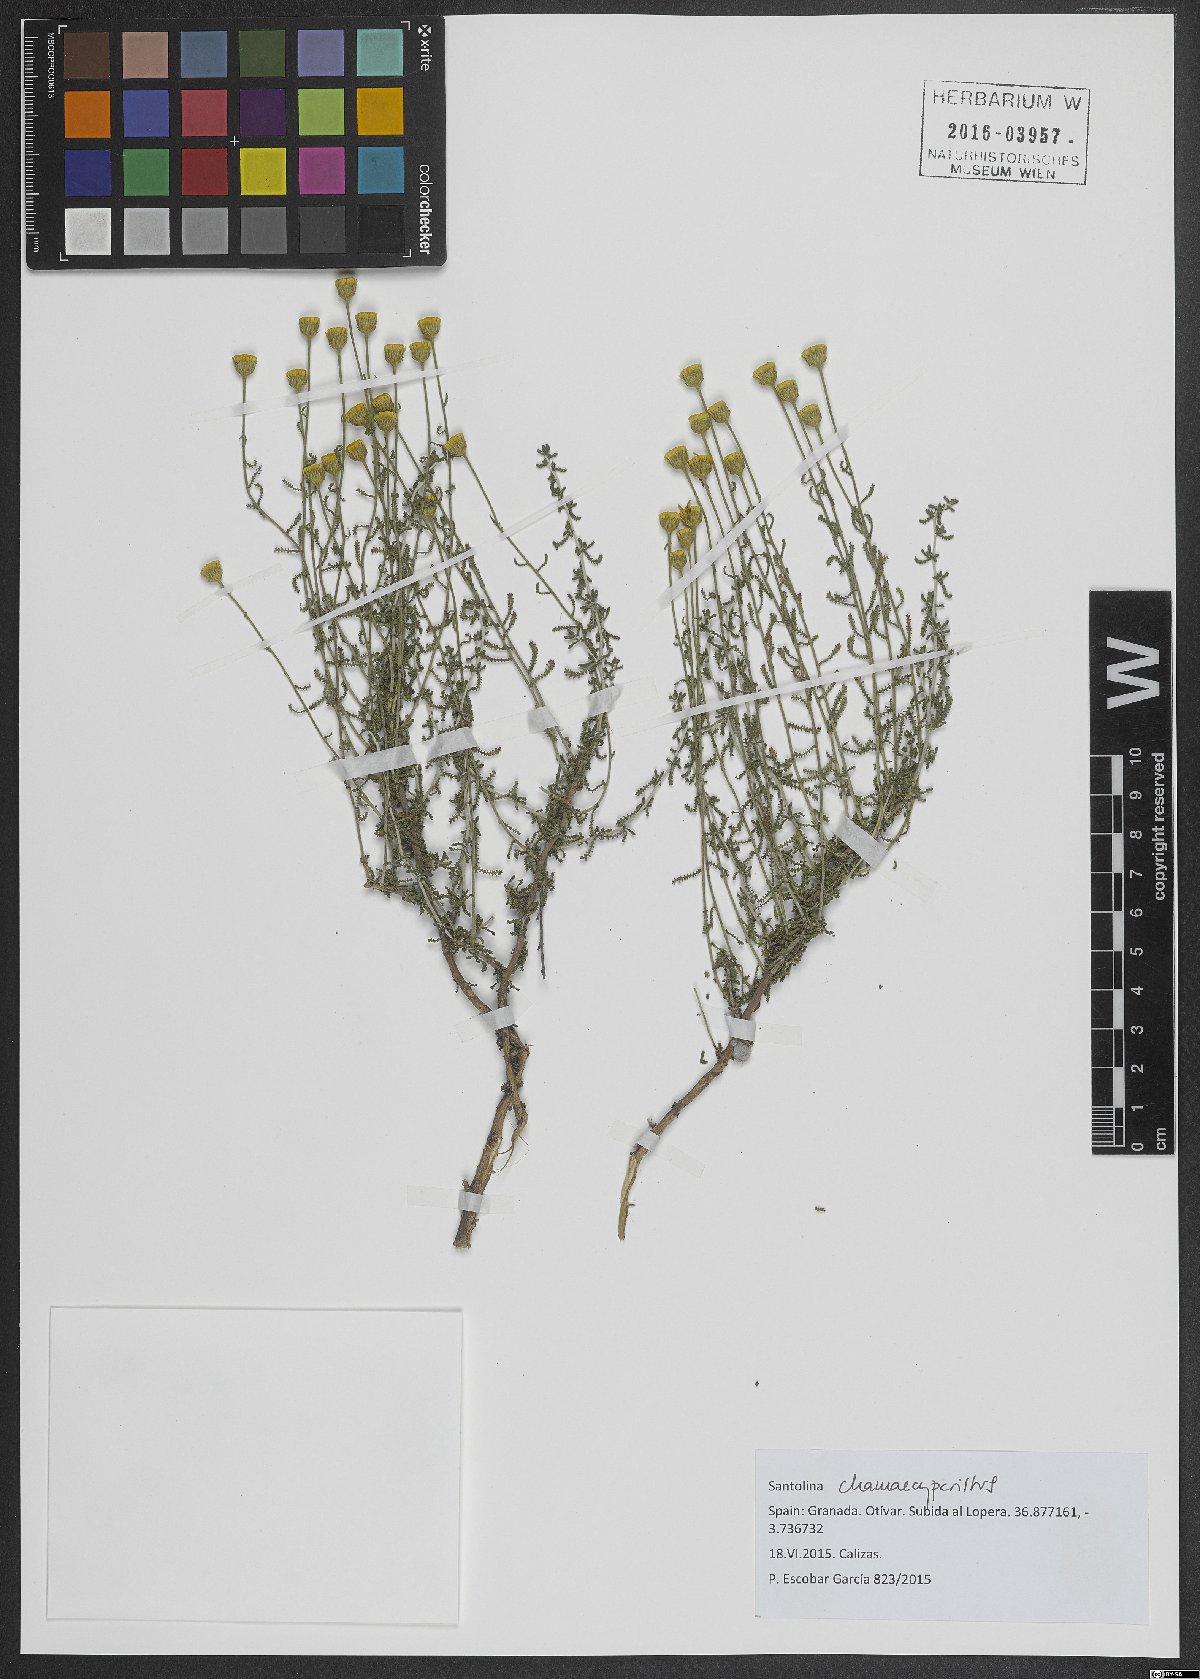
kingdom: Plantae
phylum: Tracheophyta
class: Magnoliopsida
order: Asterales
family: Asteraceae
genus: Santolina
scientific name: Santolina chamaecyparissus
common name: Lavender-cotton
